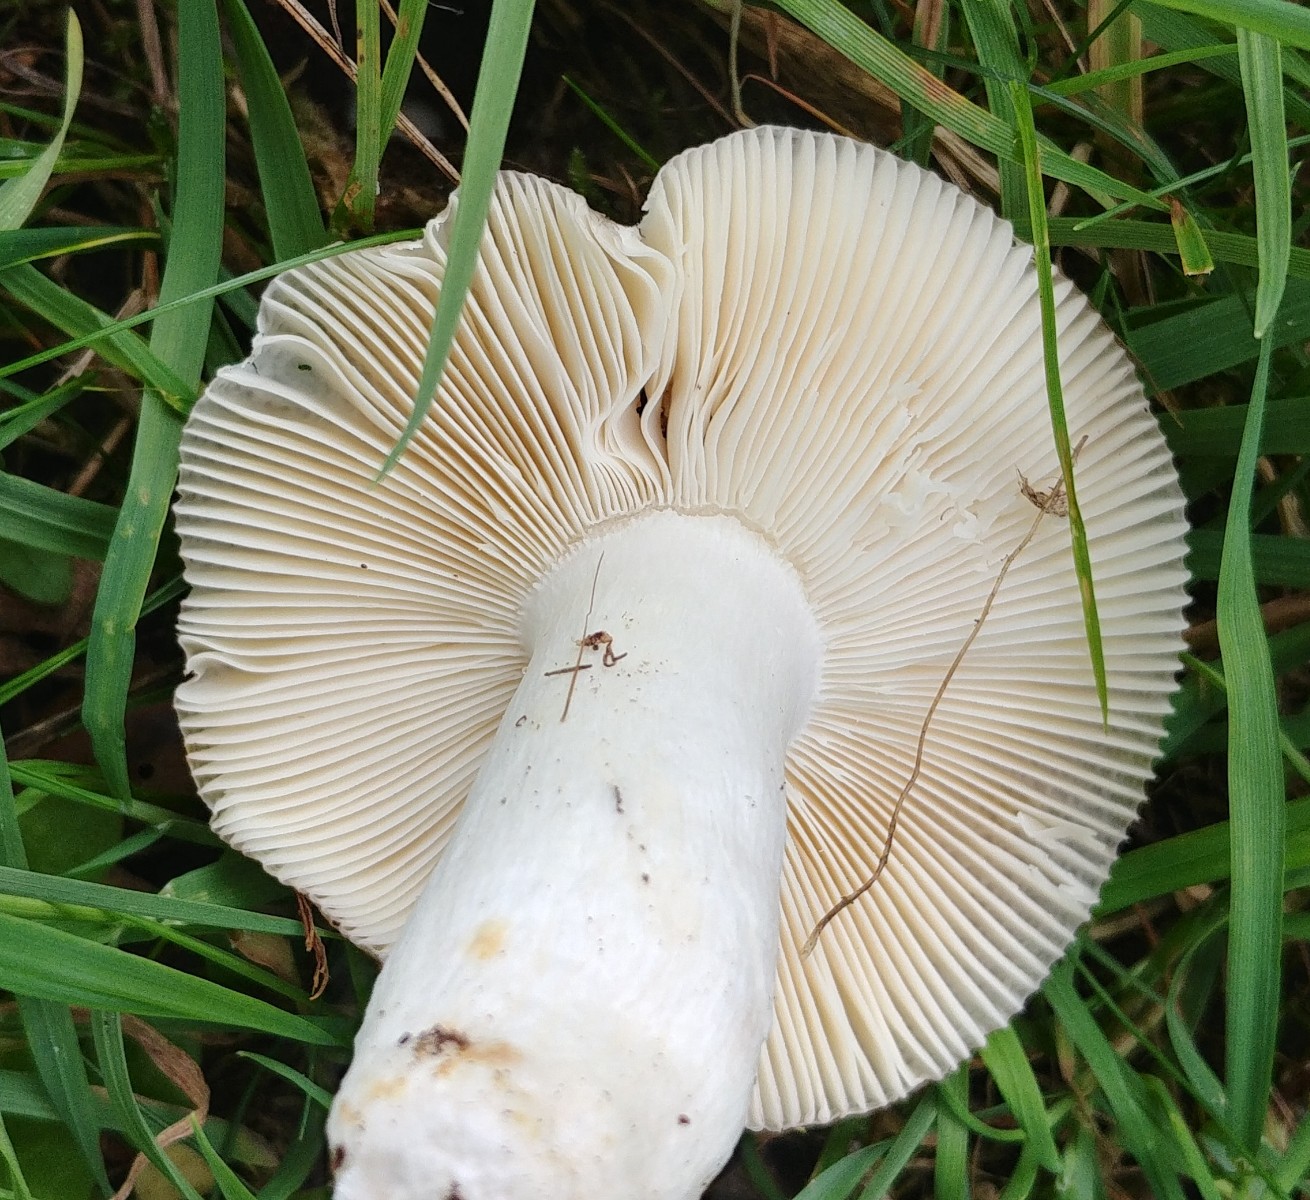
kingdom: Fungi
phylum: Basidiomycota
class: Agaricomycetes
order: Russulales
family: Russulaceae
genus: Russula
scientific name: Russula
